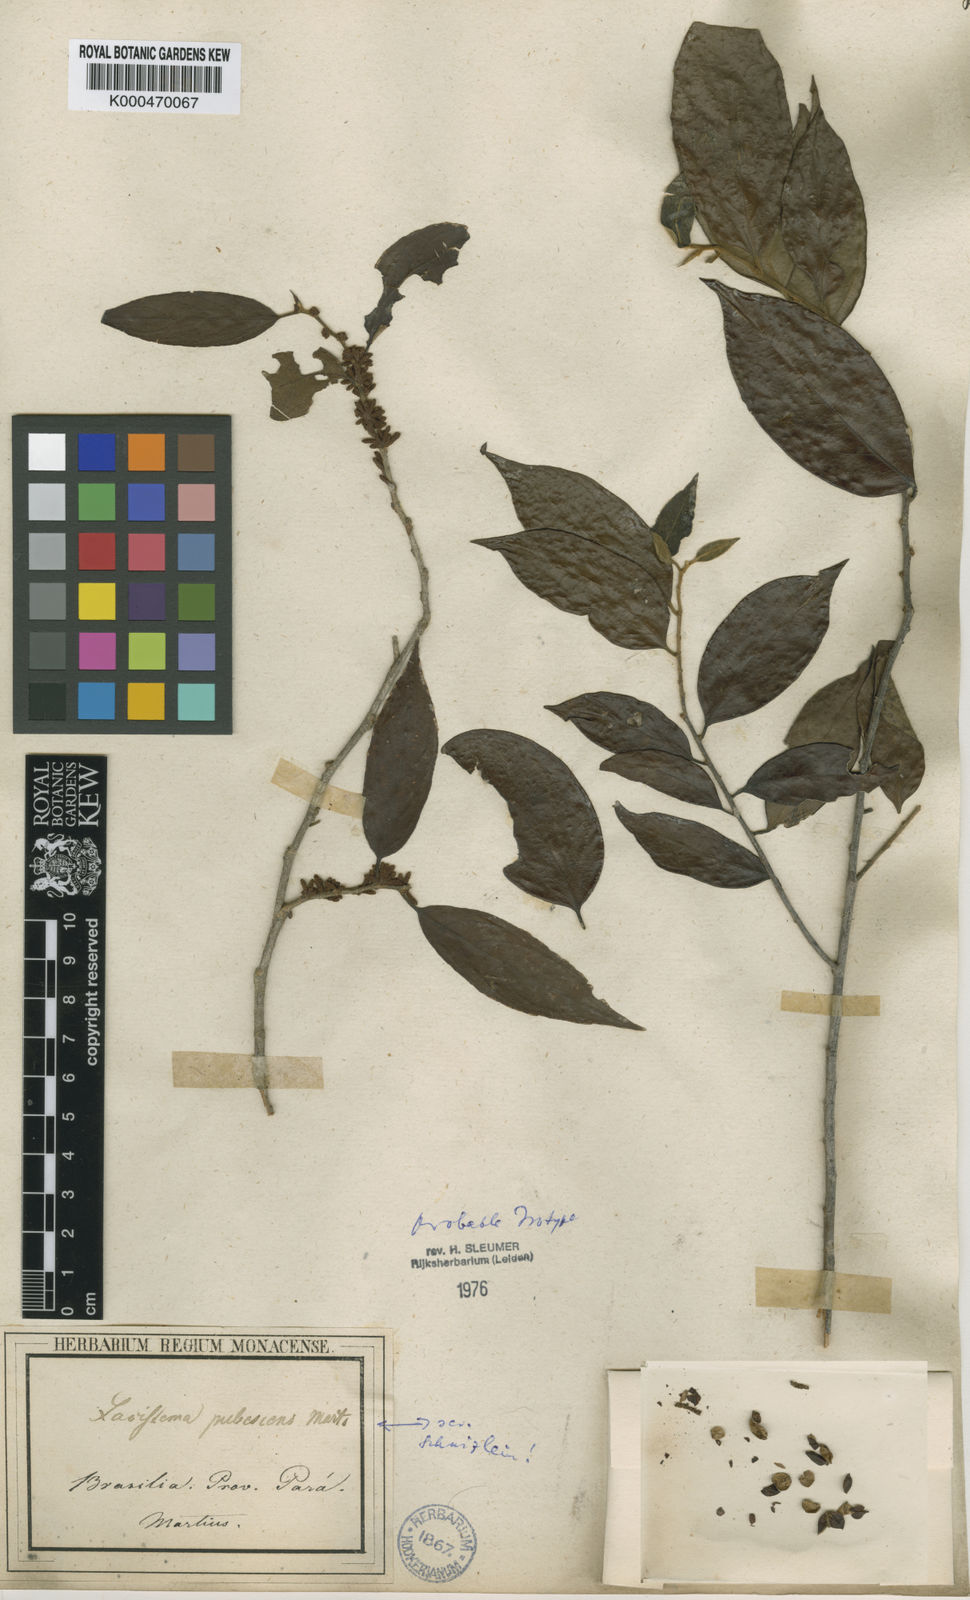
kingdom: Plantae
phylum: Tracheophyta
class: Magnoliopsida
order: Malpighiales
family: Lacistemataceae
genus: Lacistema
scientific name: Lacistema pubescens
